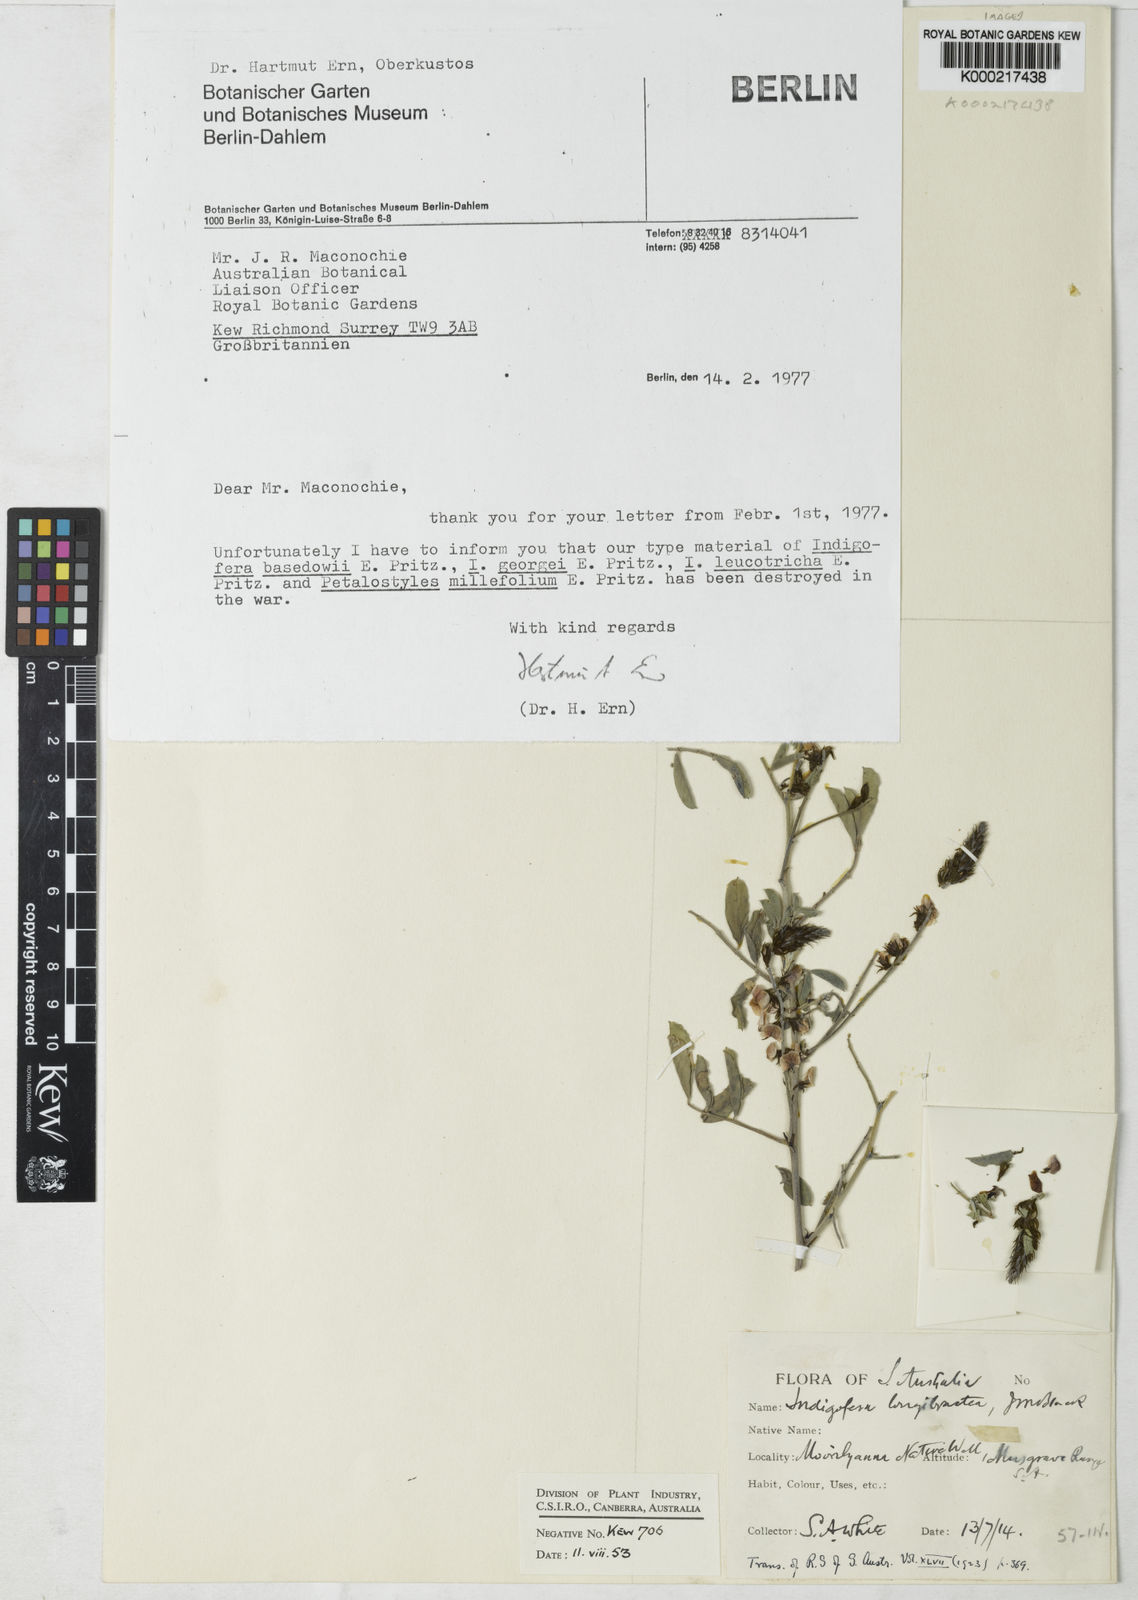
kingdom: Plantae
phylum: Tracheophyta
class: Magnoliopsida
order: Fabales
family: Fabaceae
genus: Indigofera
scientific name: Indigofera basedowii
